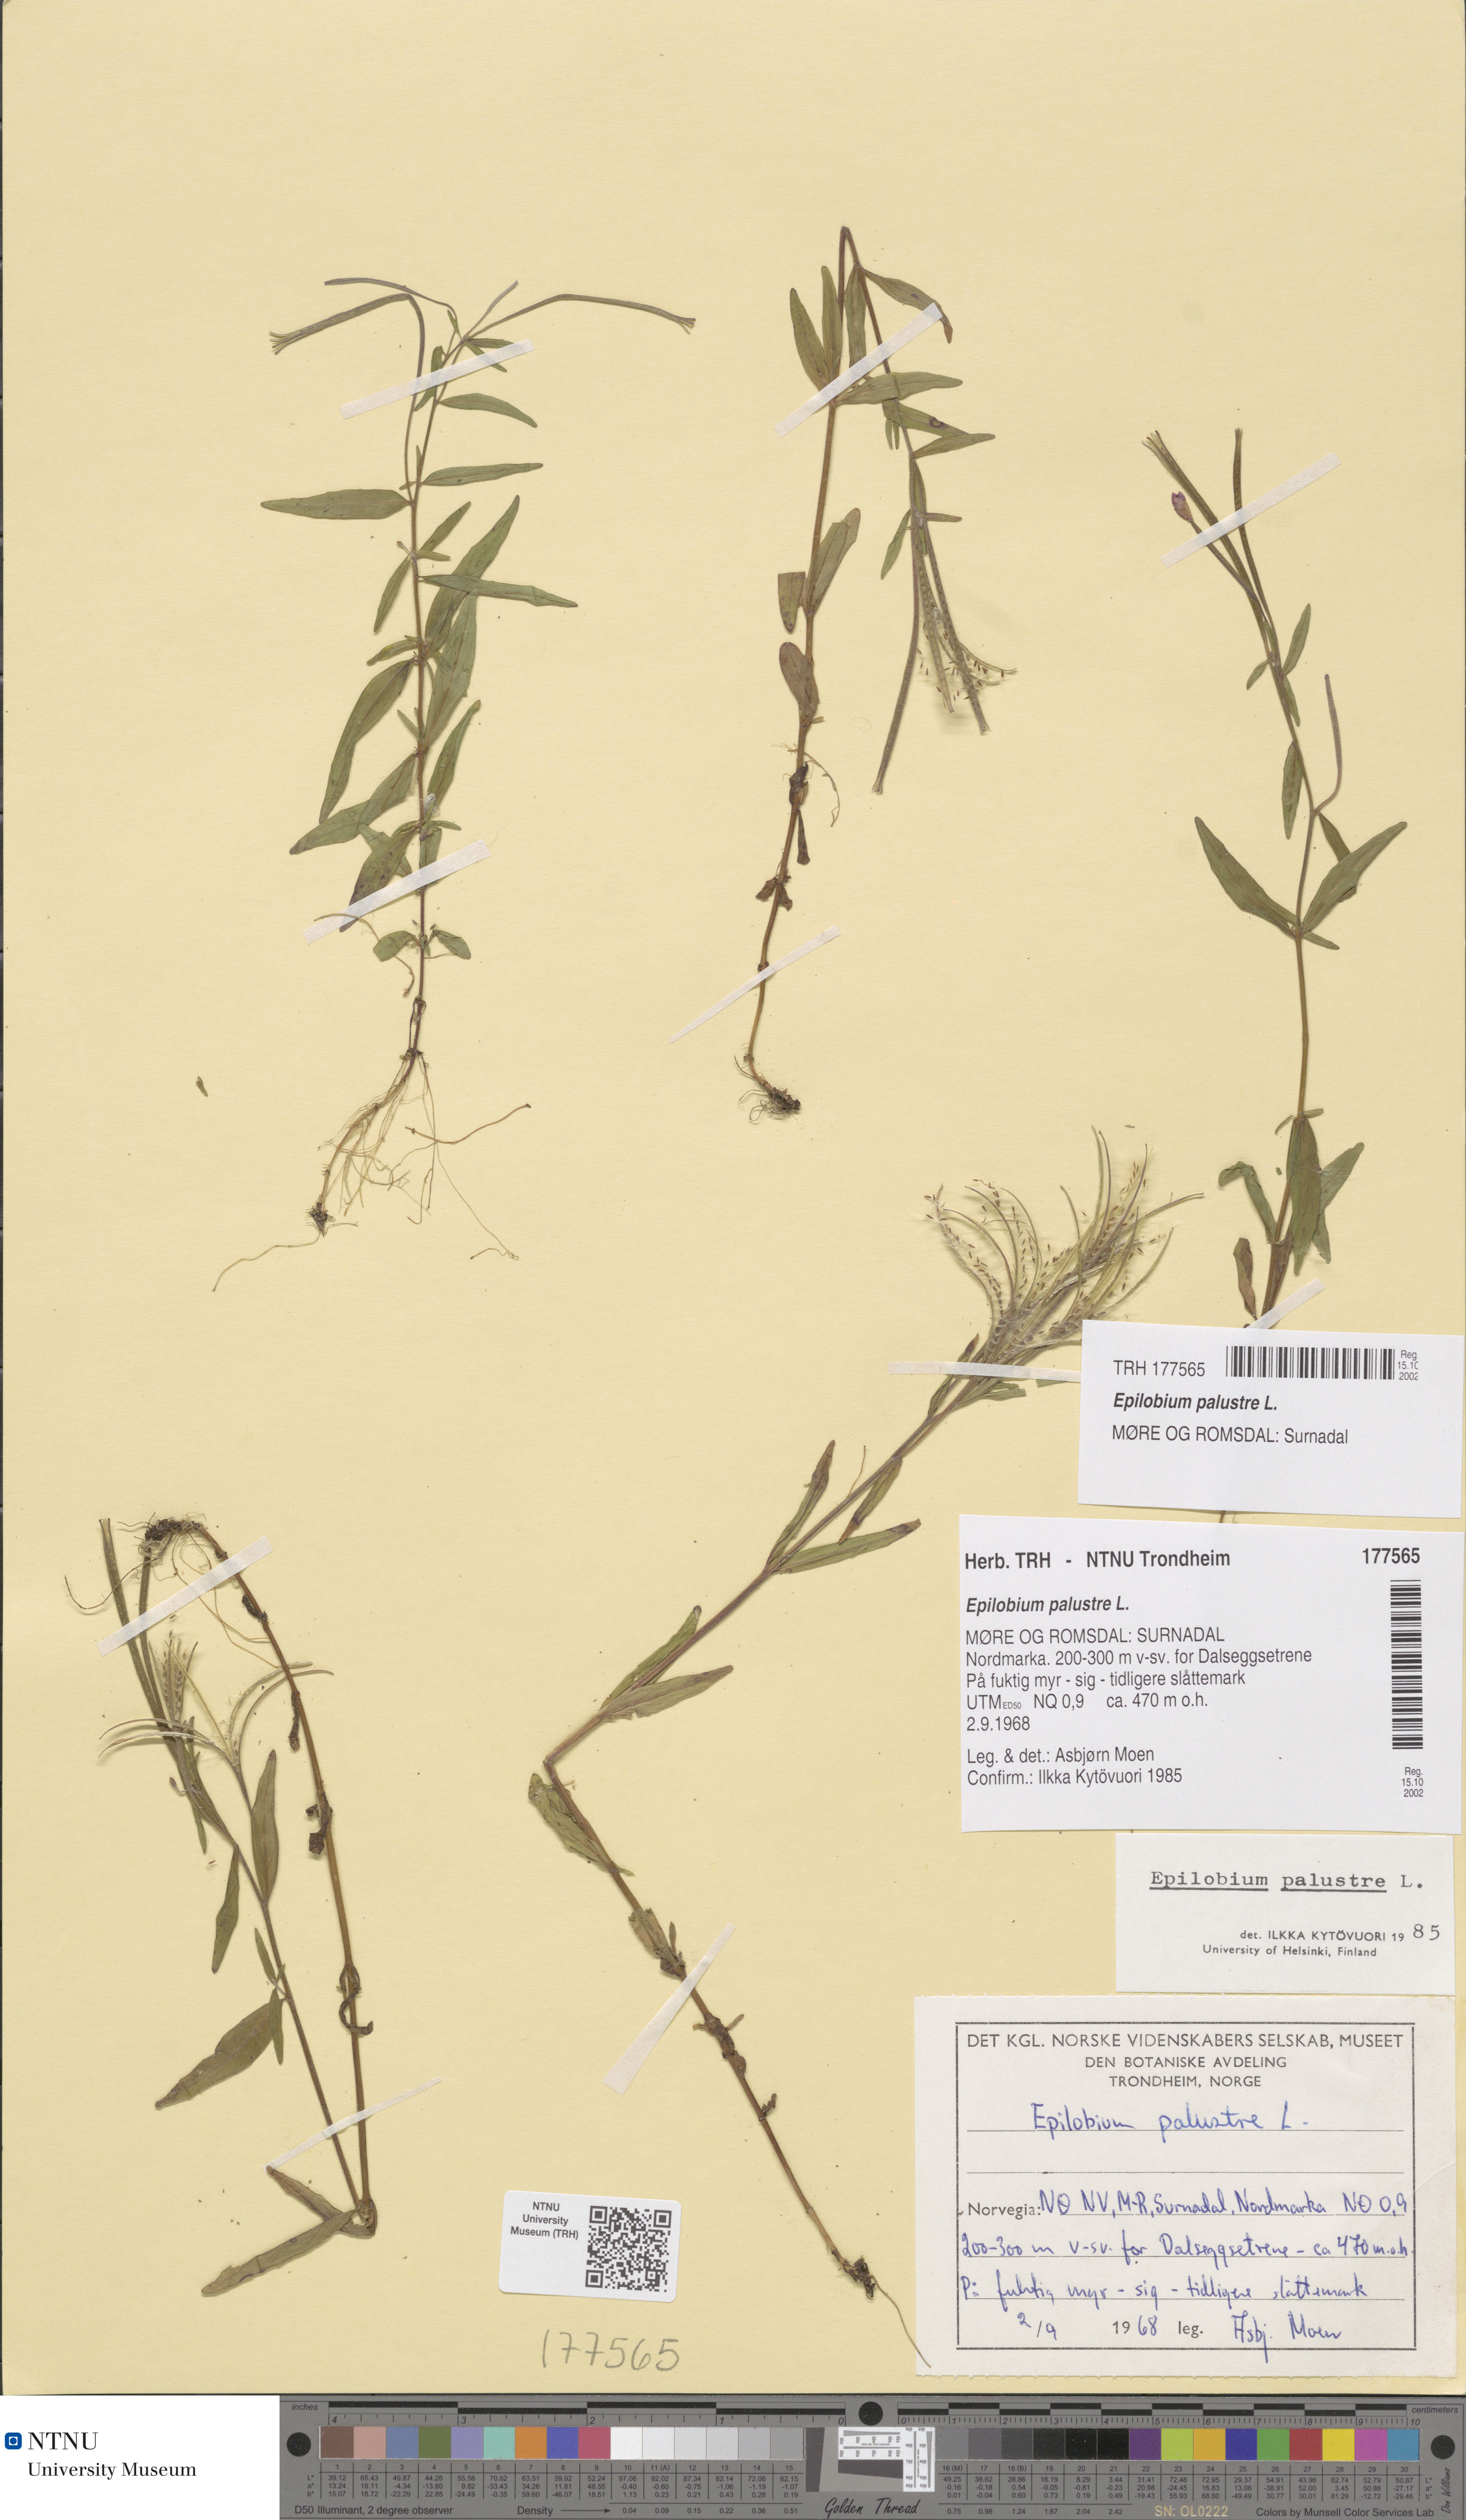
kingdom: Plantae
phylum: Tracheophyta
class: Magnoliopsida
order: Myrtales
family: Onagraceae
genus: Epilobium
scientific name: Epilobium palustre
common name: Marsh willowherb
